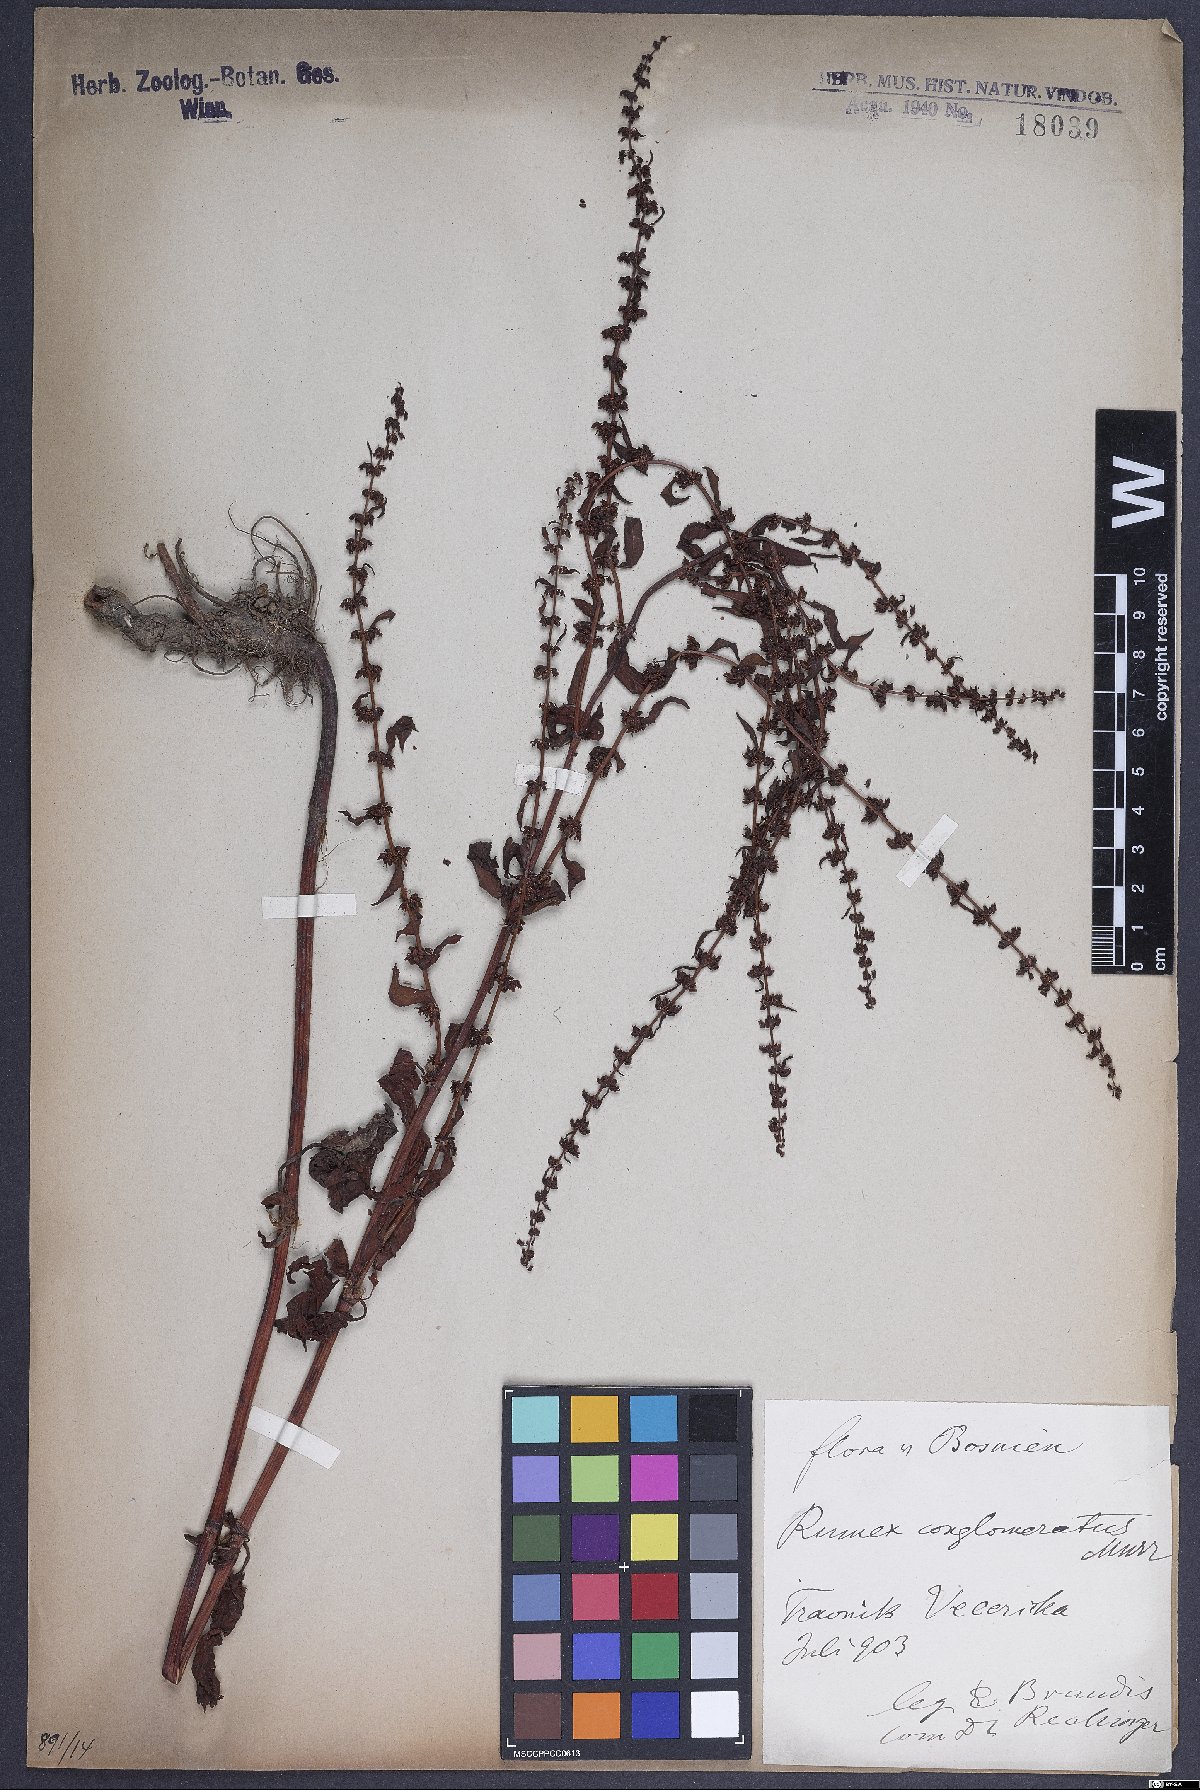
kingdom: Plantae
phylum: Tracheophyta
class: Magnoliopsida
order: Caryophyllales
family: Polygonaceae
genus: Rumex
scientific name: Rumex conglomeratus
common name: Clustered dock
